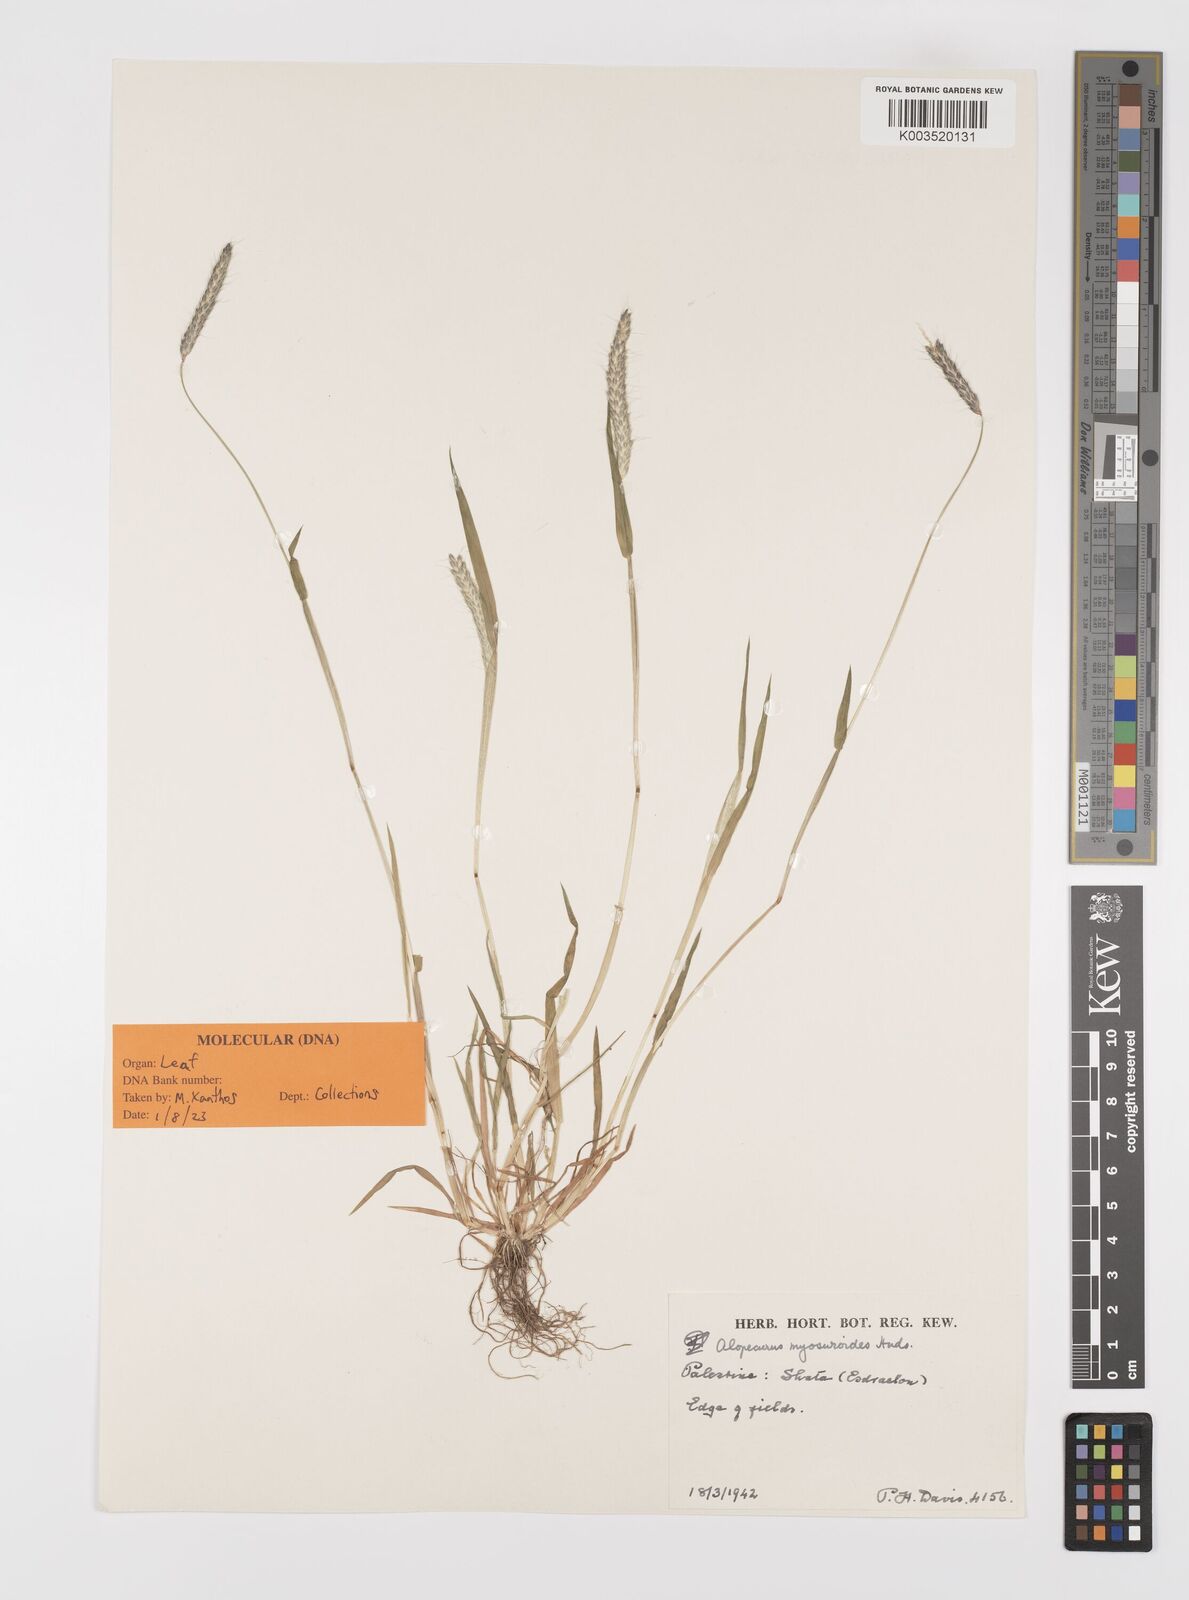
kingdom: Plantae
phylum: Tracheophyta
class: Liliopsida
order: Poales
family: Poaceae
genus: Alopecurus
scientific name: Alopecurus myosuroides
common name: Black-grass
